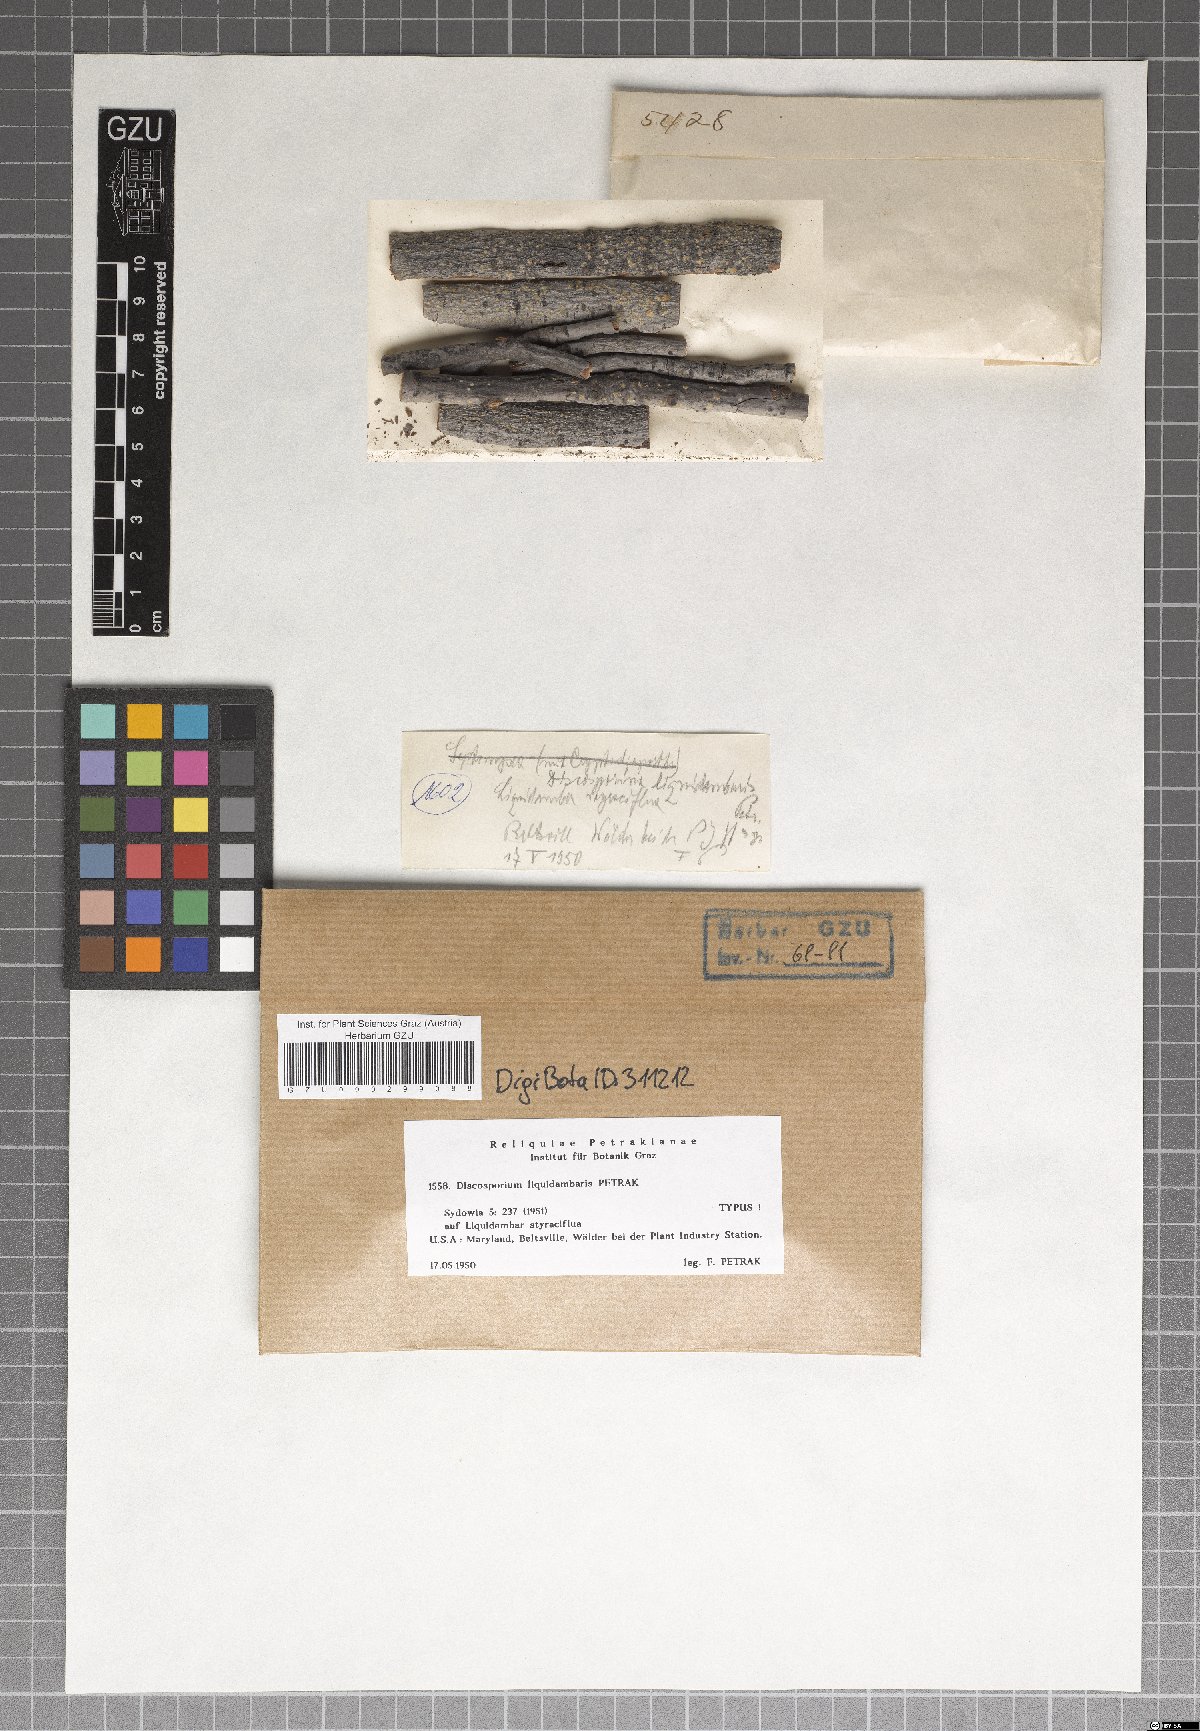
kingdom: Fungi
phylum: Ascomycota
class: Sordariomycetes
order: Diaporthales
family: Gnomoniaceae
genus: Discosporium
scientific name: Discosporium liquidambaris
